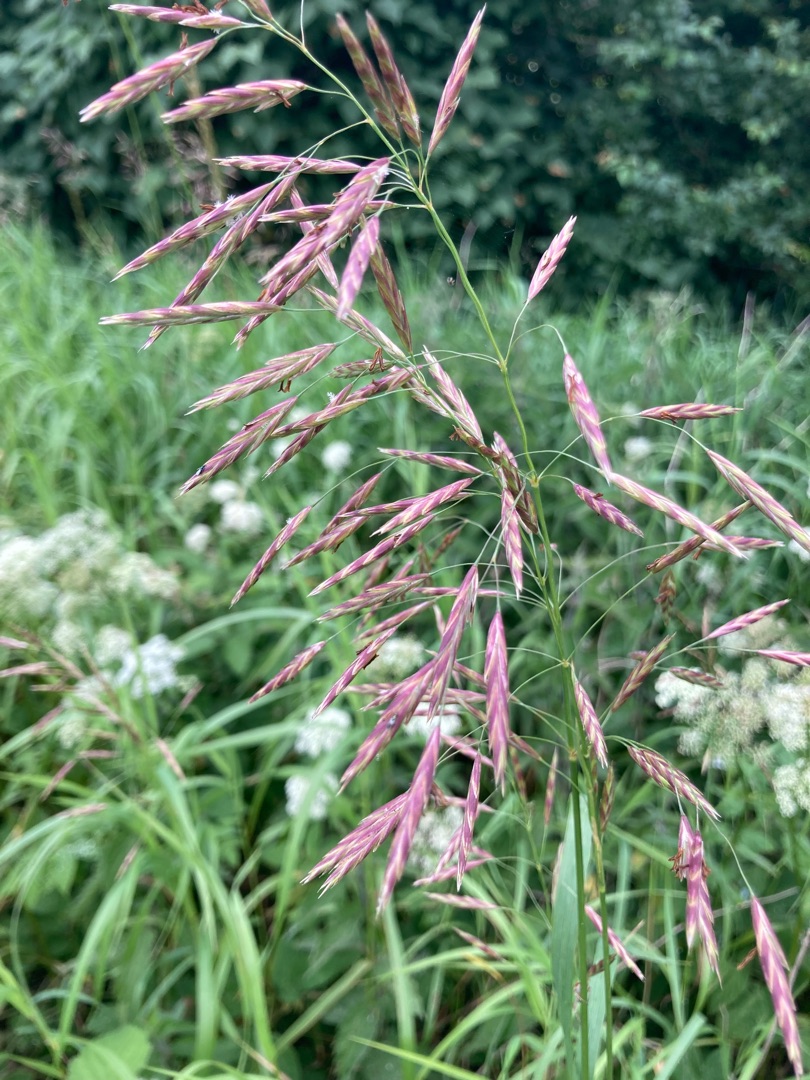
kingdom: Plantae
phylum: Tracheophyta
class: Liliopsida
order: Poales
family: Poaceae
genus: Bromus
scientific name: Bromus inermis
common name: Stakløs hejre
